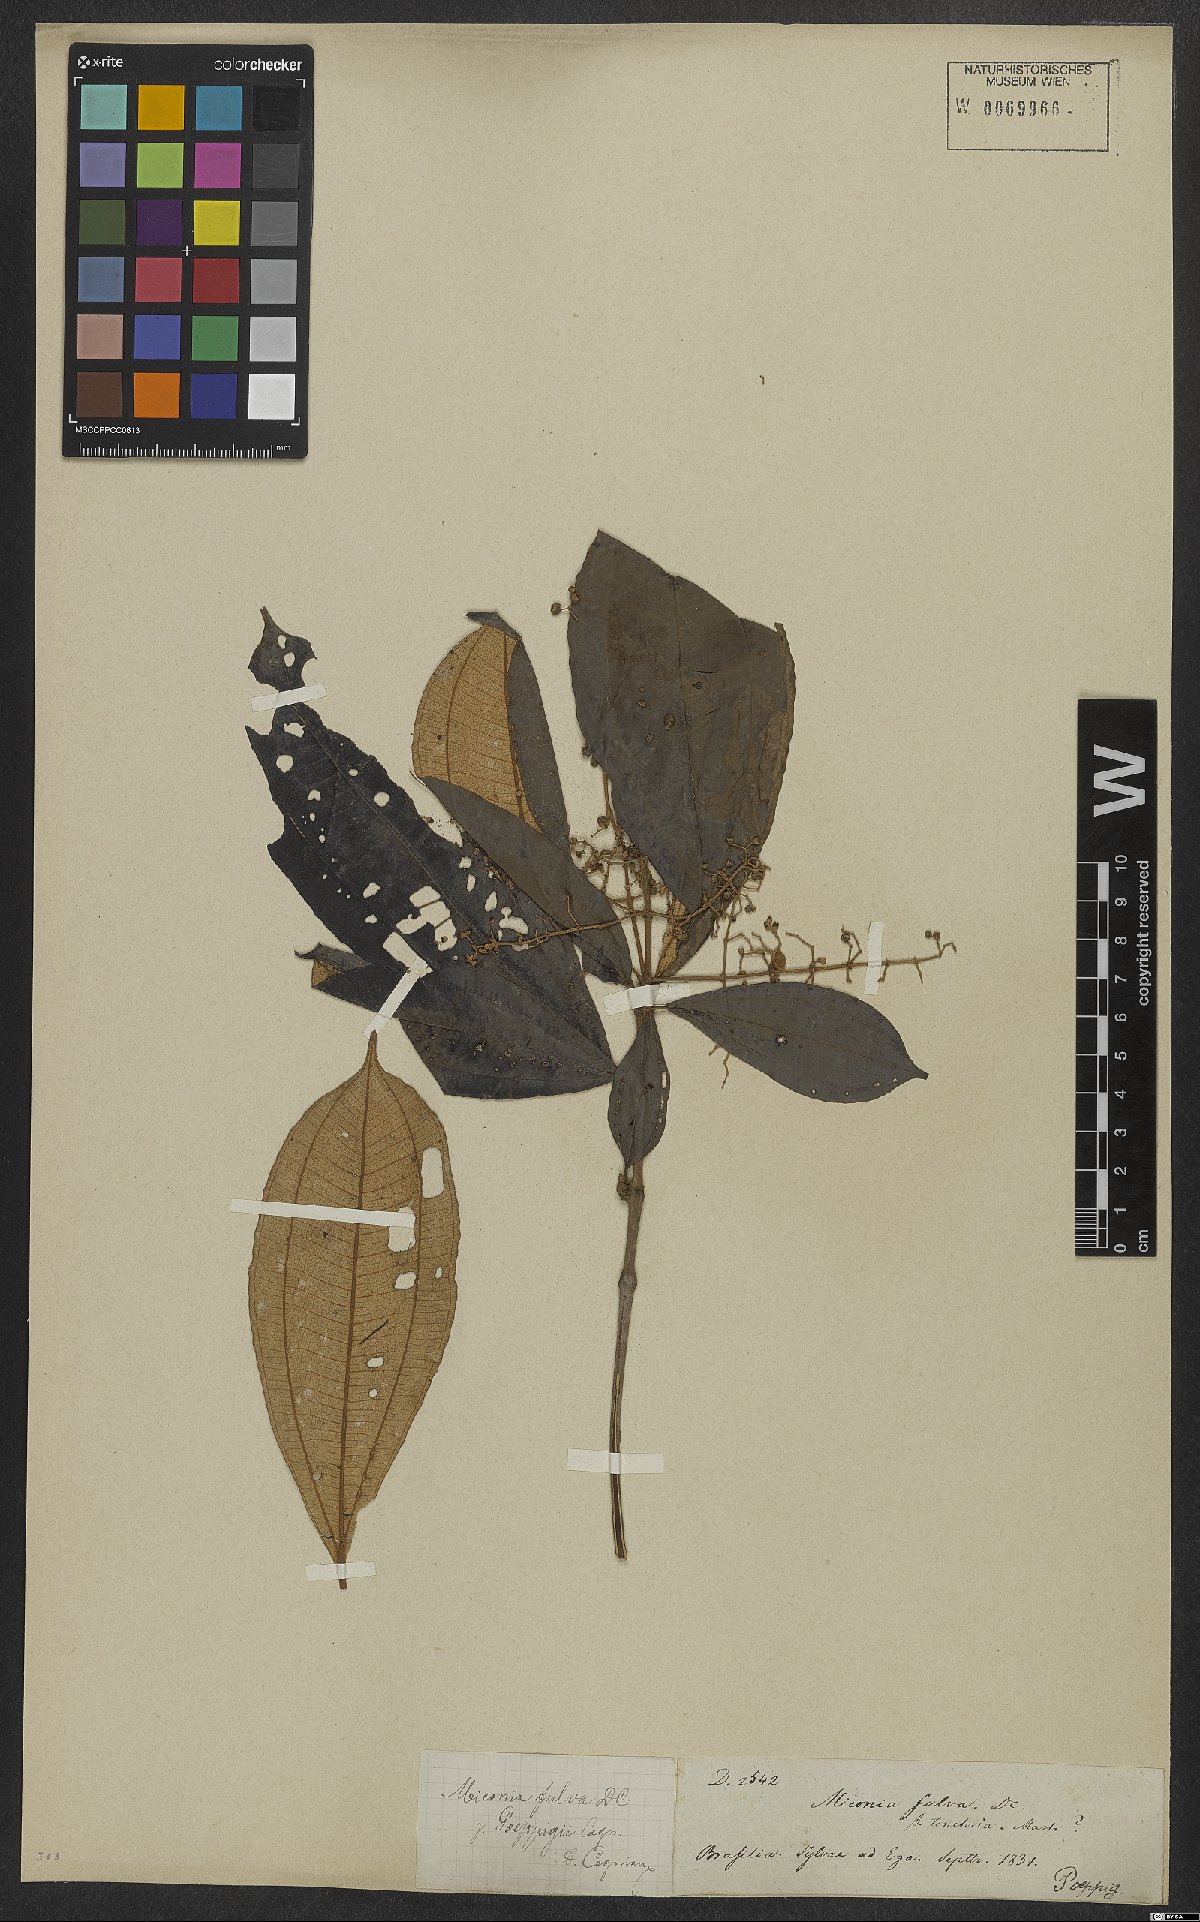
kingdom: Plantae
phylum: Tracheophyta
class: Magnoliopsida
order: Myrtales
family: Melastomataceae
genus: Miconia
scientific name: Miconia chrysophylla
